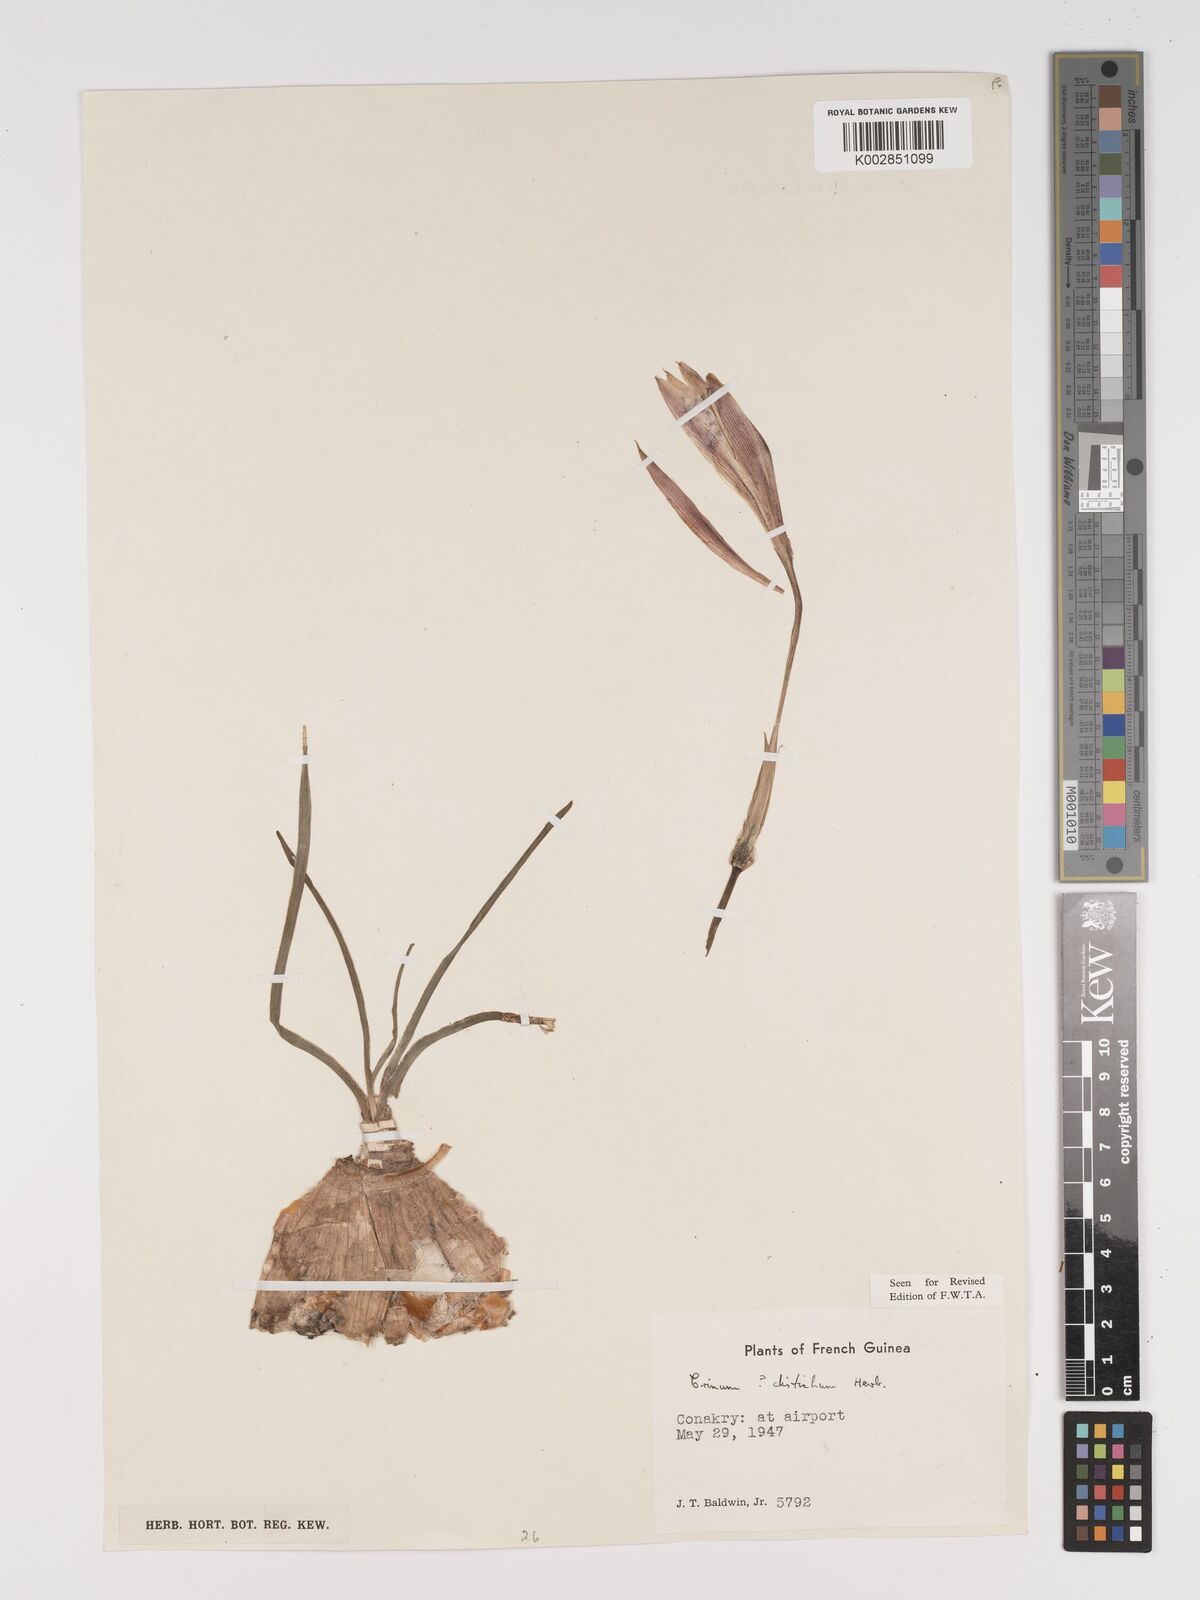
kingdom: Plantae
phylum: Tracheophyta
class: Liliopsida
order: Asparagales
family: Amaryllidaceae
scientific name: Amaryllidaceae
